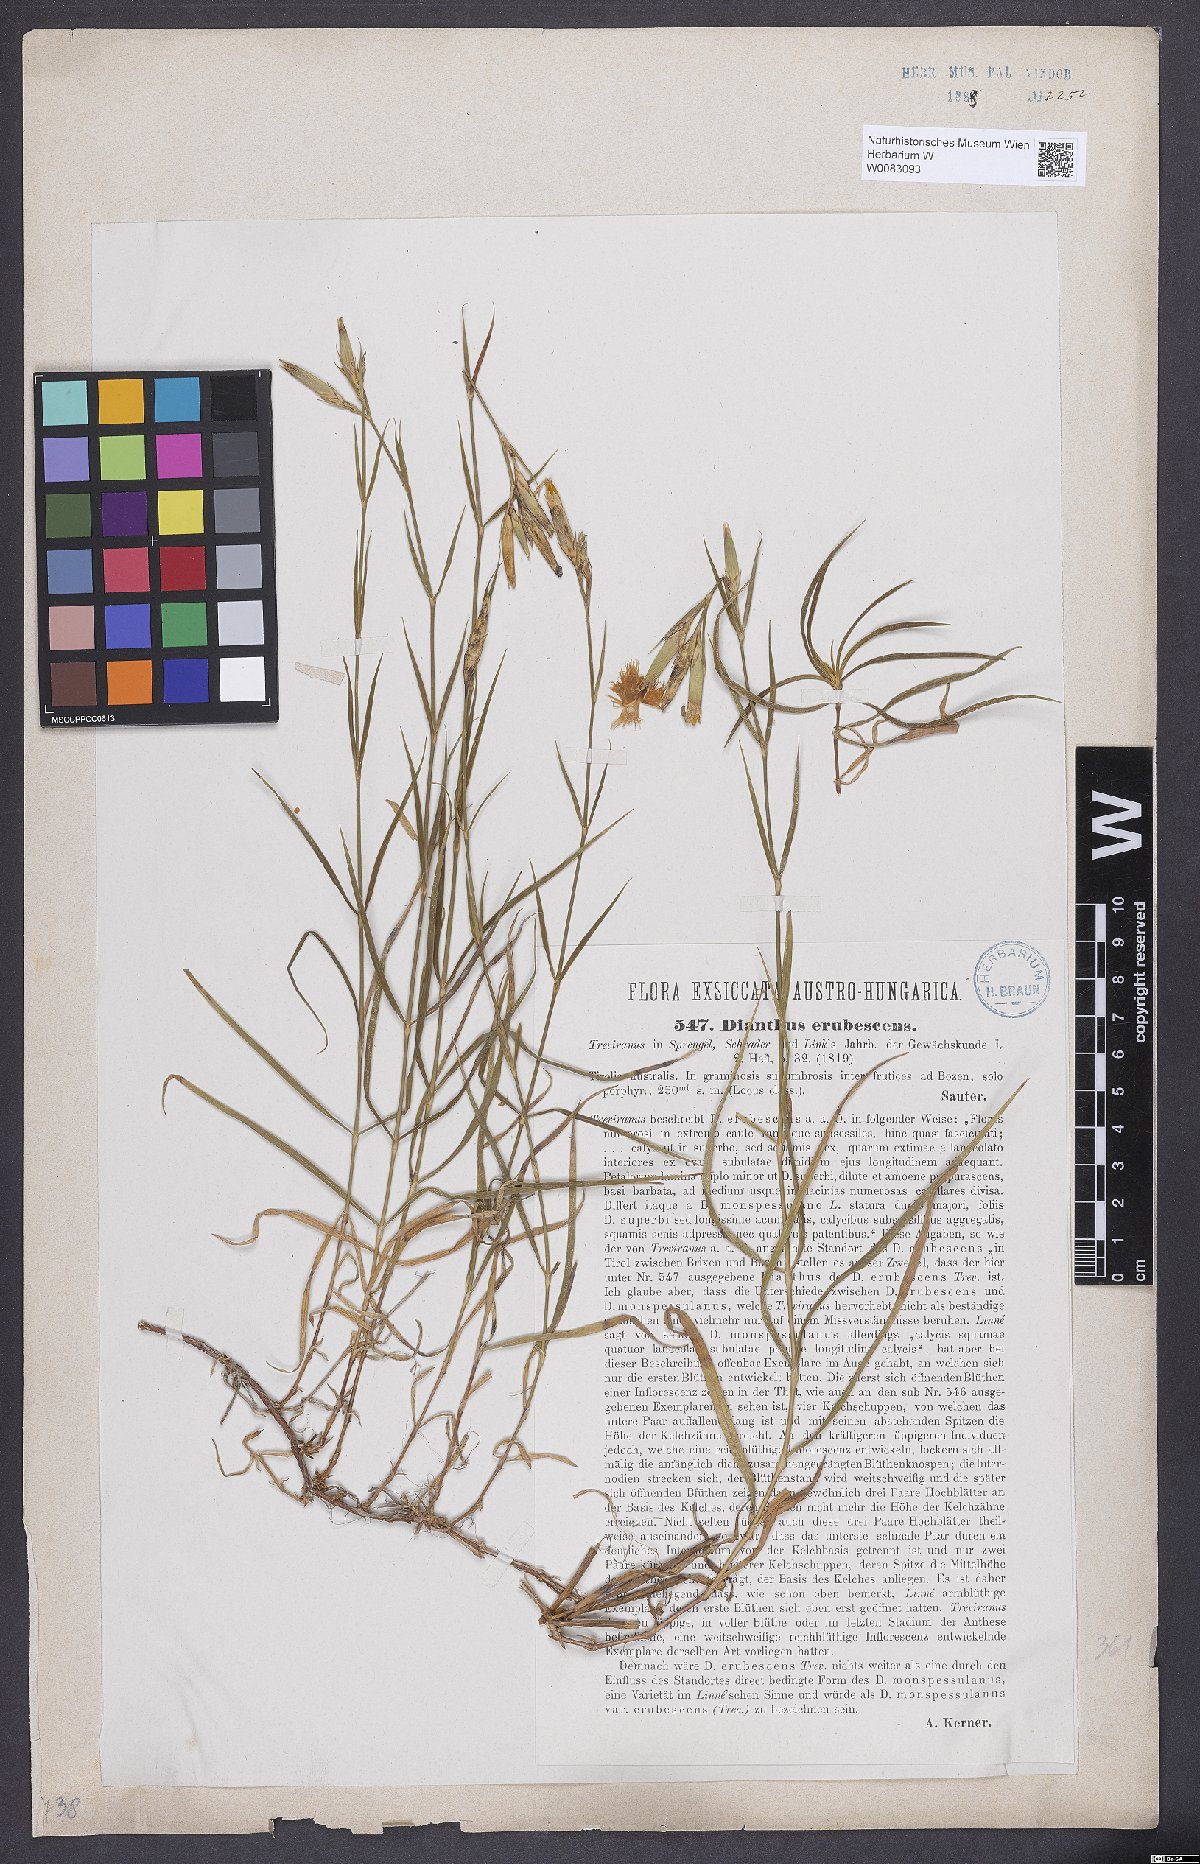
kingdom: Plantae
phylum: Tracheophyta
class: Magnoliopsida
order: Caryophyllales
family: Caryophyllaceae
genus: Dianthus
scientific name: Dianthus erubescens
